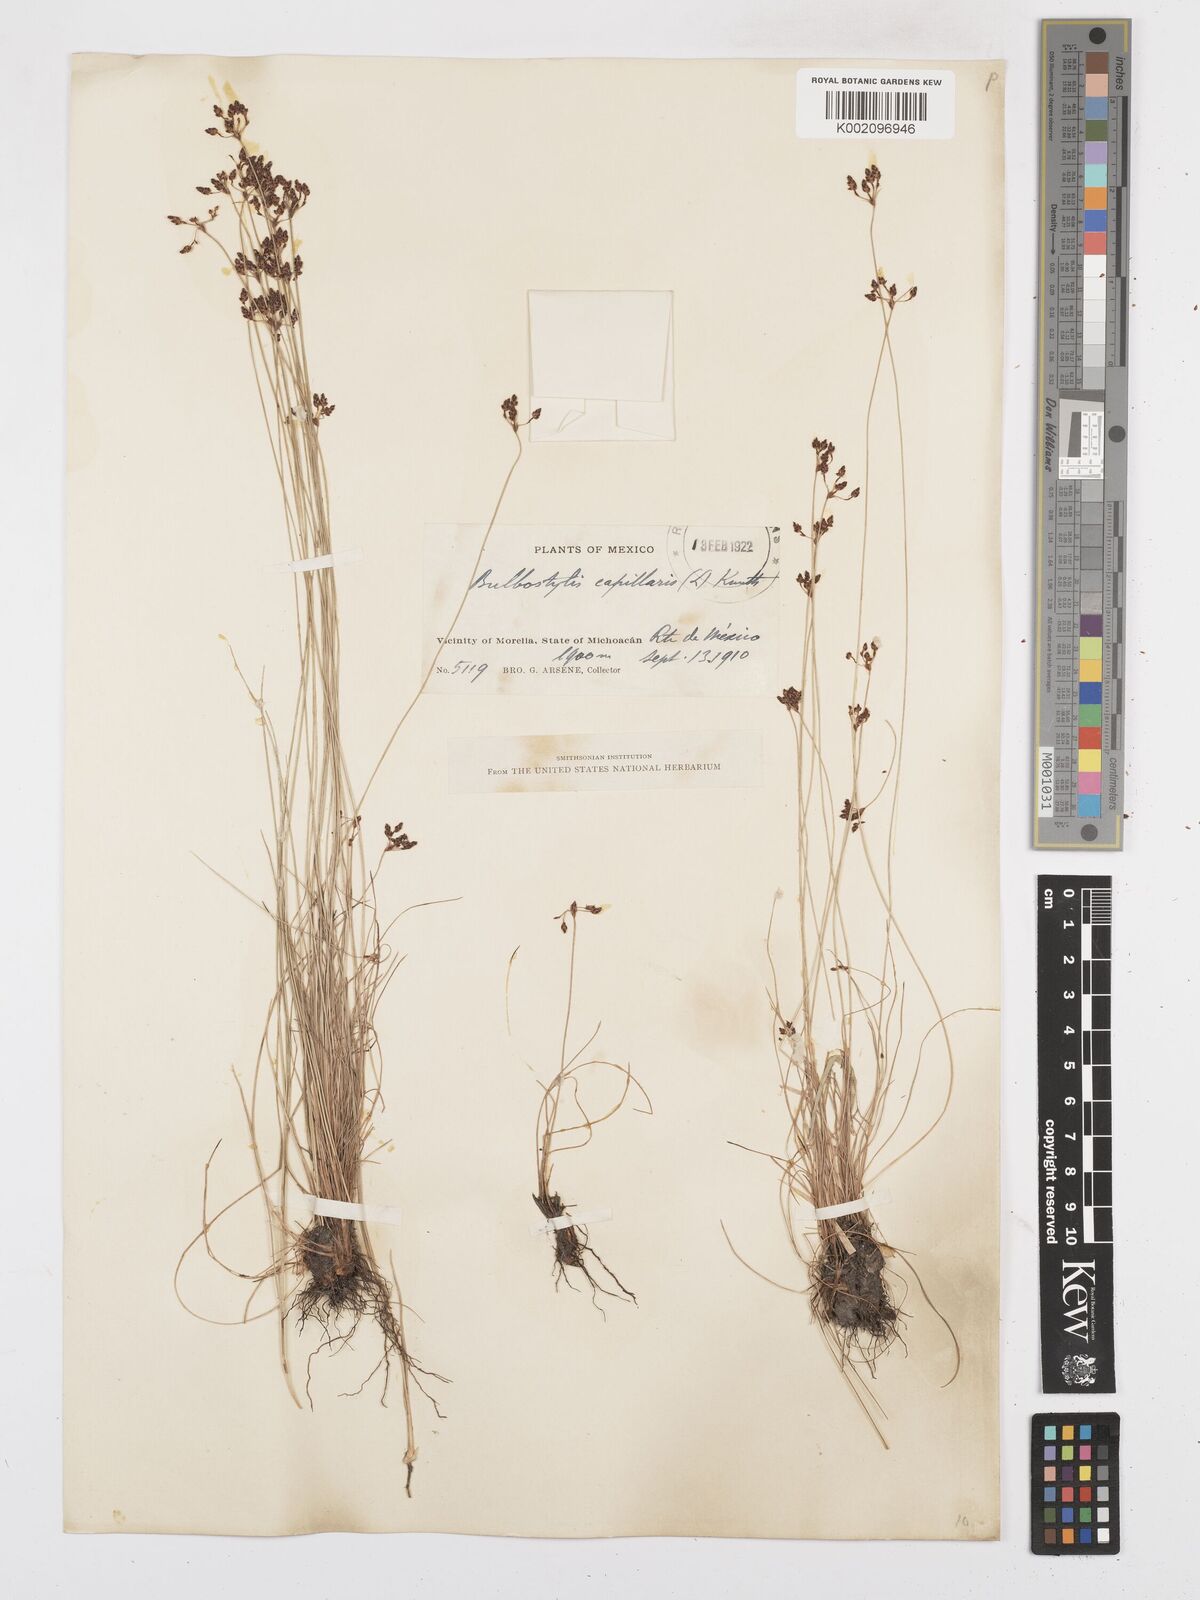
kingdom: Plantae
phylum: Tracheophyta
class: Liliopsida
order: Poales
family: Cyperaceae
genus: Bulbostylis
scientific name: Bulbostylis capillaris
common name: Densetuft hairsedge
